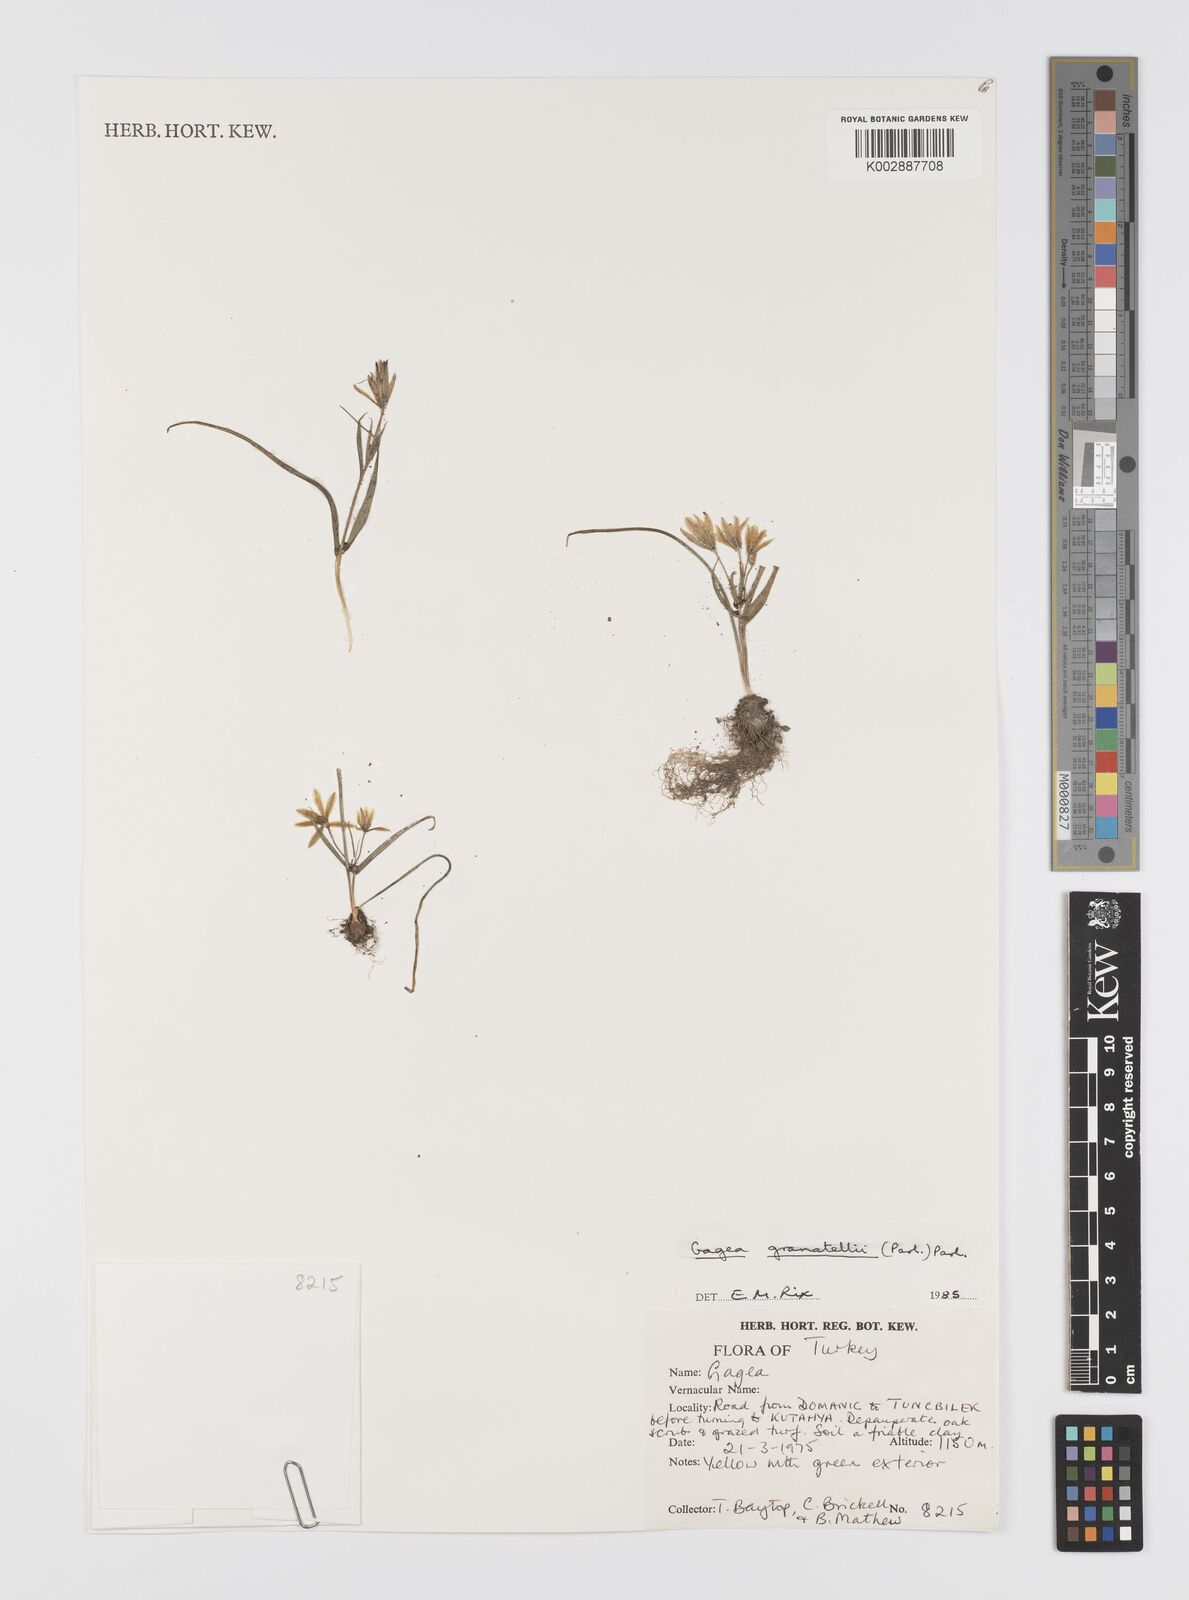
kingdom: Plantae
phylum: Tracheophyta
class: Liliopsida
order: Liliales
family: Liliaceae
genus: Gagea
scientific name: Gagea granatellii
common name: Granatelli’s gagea
